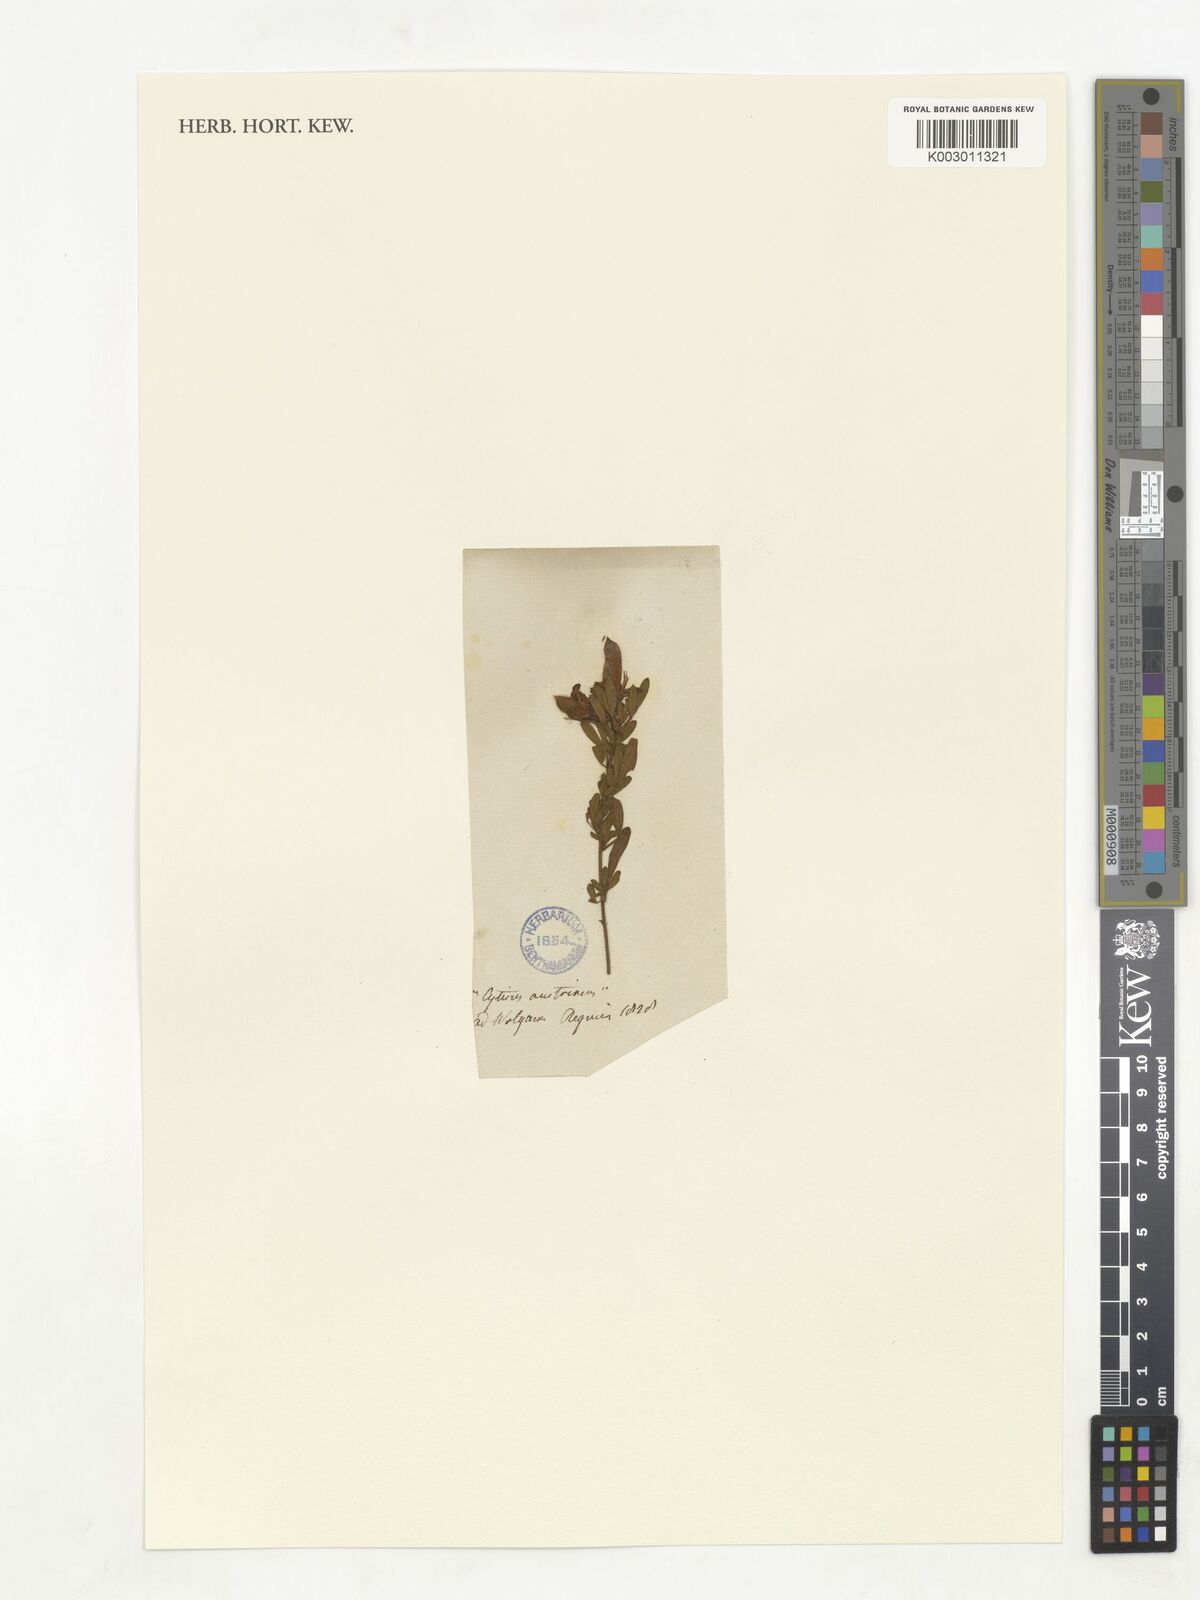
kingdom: Plantae
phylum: Tracheophyta
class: Magnoliopsida
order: Fabales
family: Fabaceae
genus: Chamaecytisus
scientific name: Chamaecytisus austriacus
